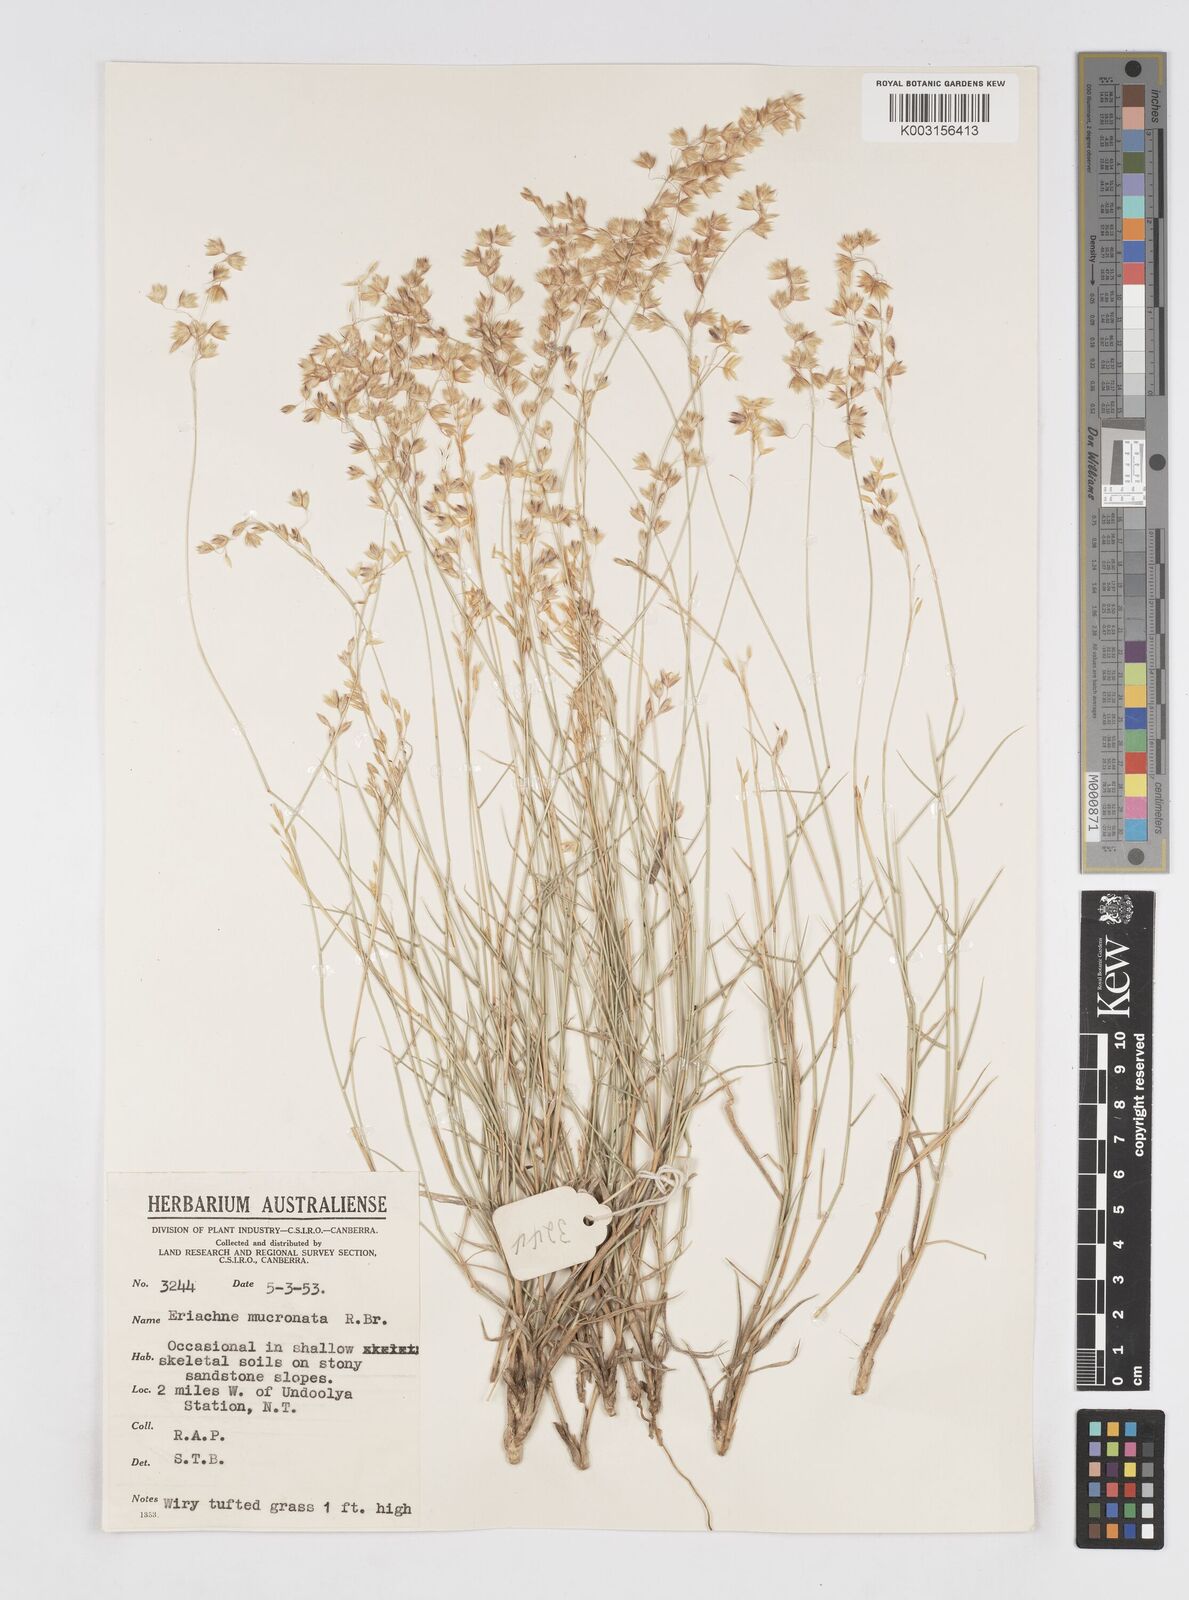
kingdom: Plantae
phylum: Tracheophyta
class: Liliopsida
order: Poales
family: Poaceae
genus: Eriachne
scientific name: Eriachne mucronata
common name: Mountain wanderrie grass
